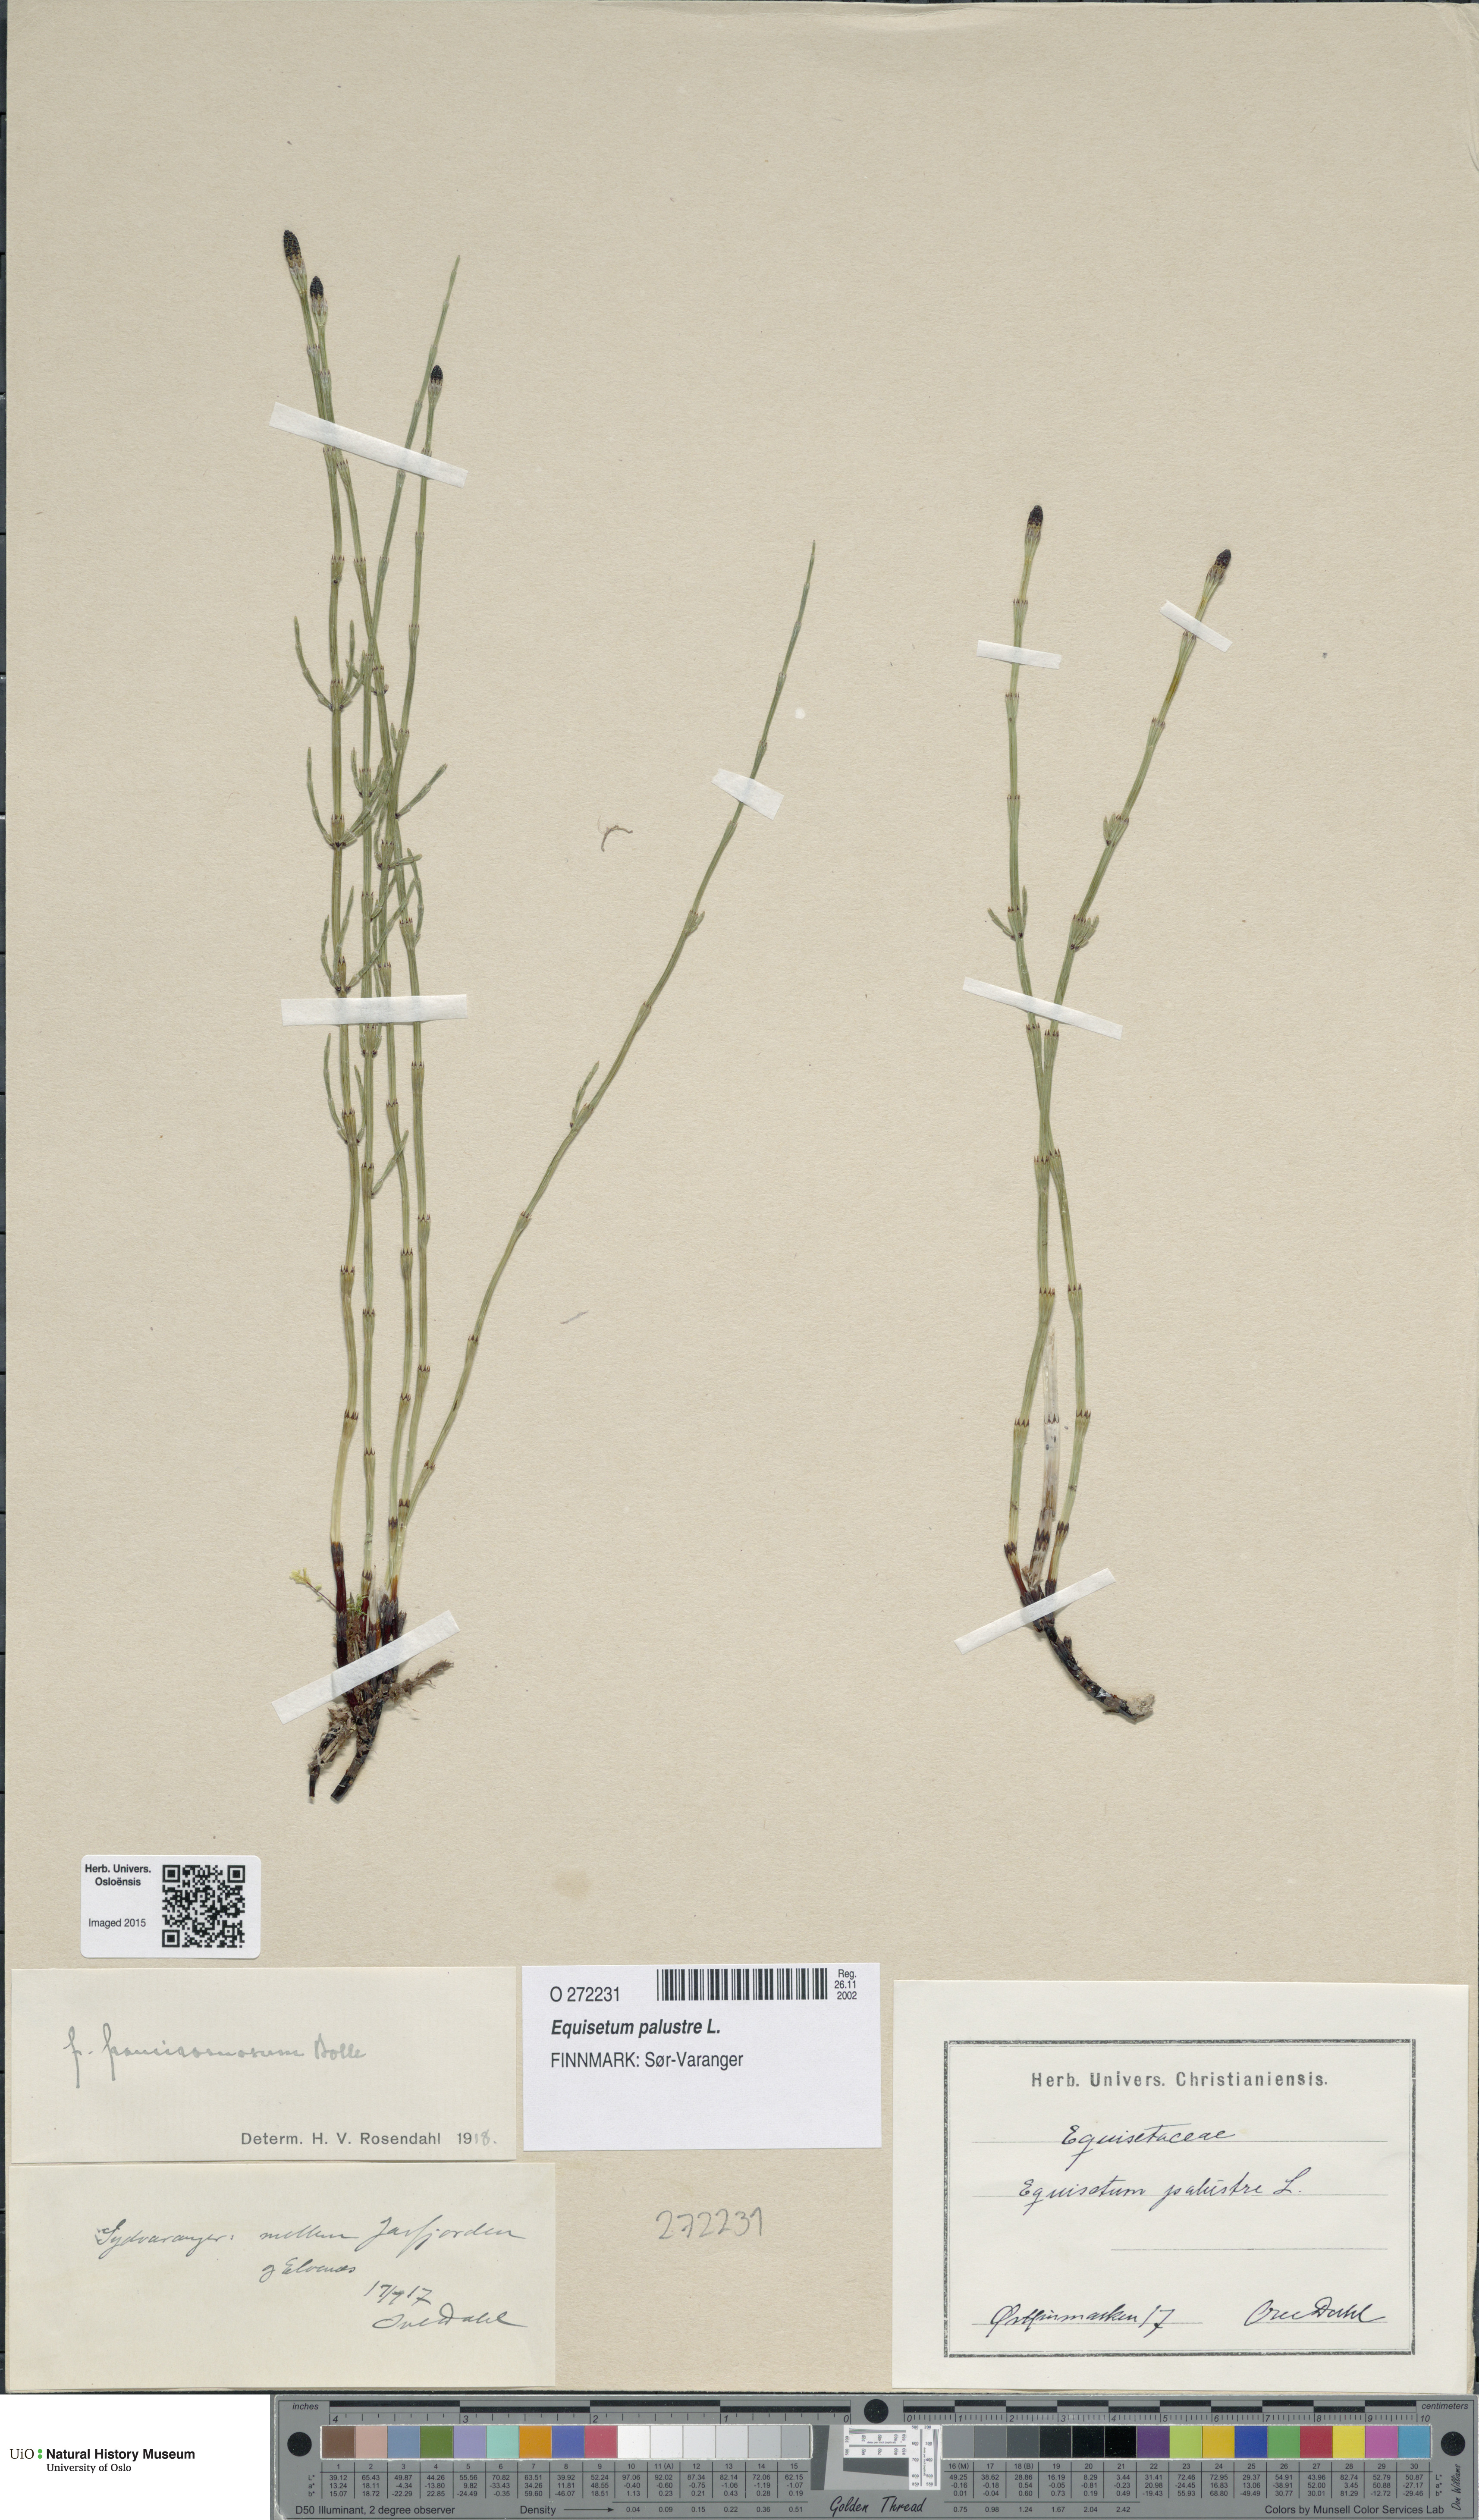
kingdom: Plantae
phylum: Tracheophyta
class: Polypodiopsida
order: Equisetales
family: Equisetaceae
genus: Equisetum
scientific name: Equisetum palustre
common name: Marsh horsetail
